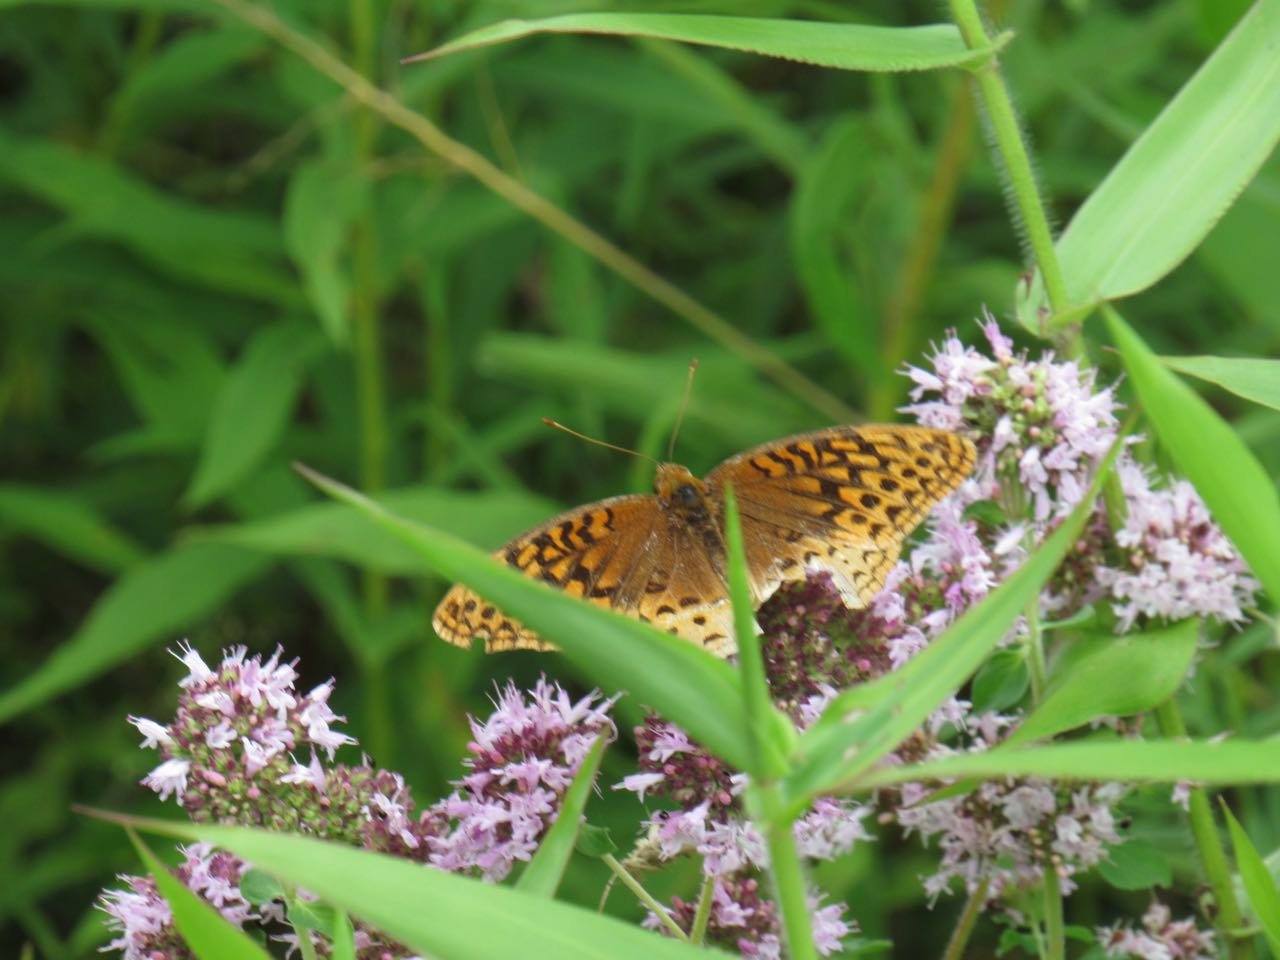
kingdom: Animalia
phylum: Arthropoda
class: Insecta
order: Lepidoptera
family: Nymphalidae
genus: Speyeria
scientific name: Speyeria cybele
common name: Great Spangled Fritillary
